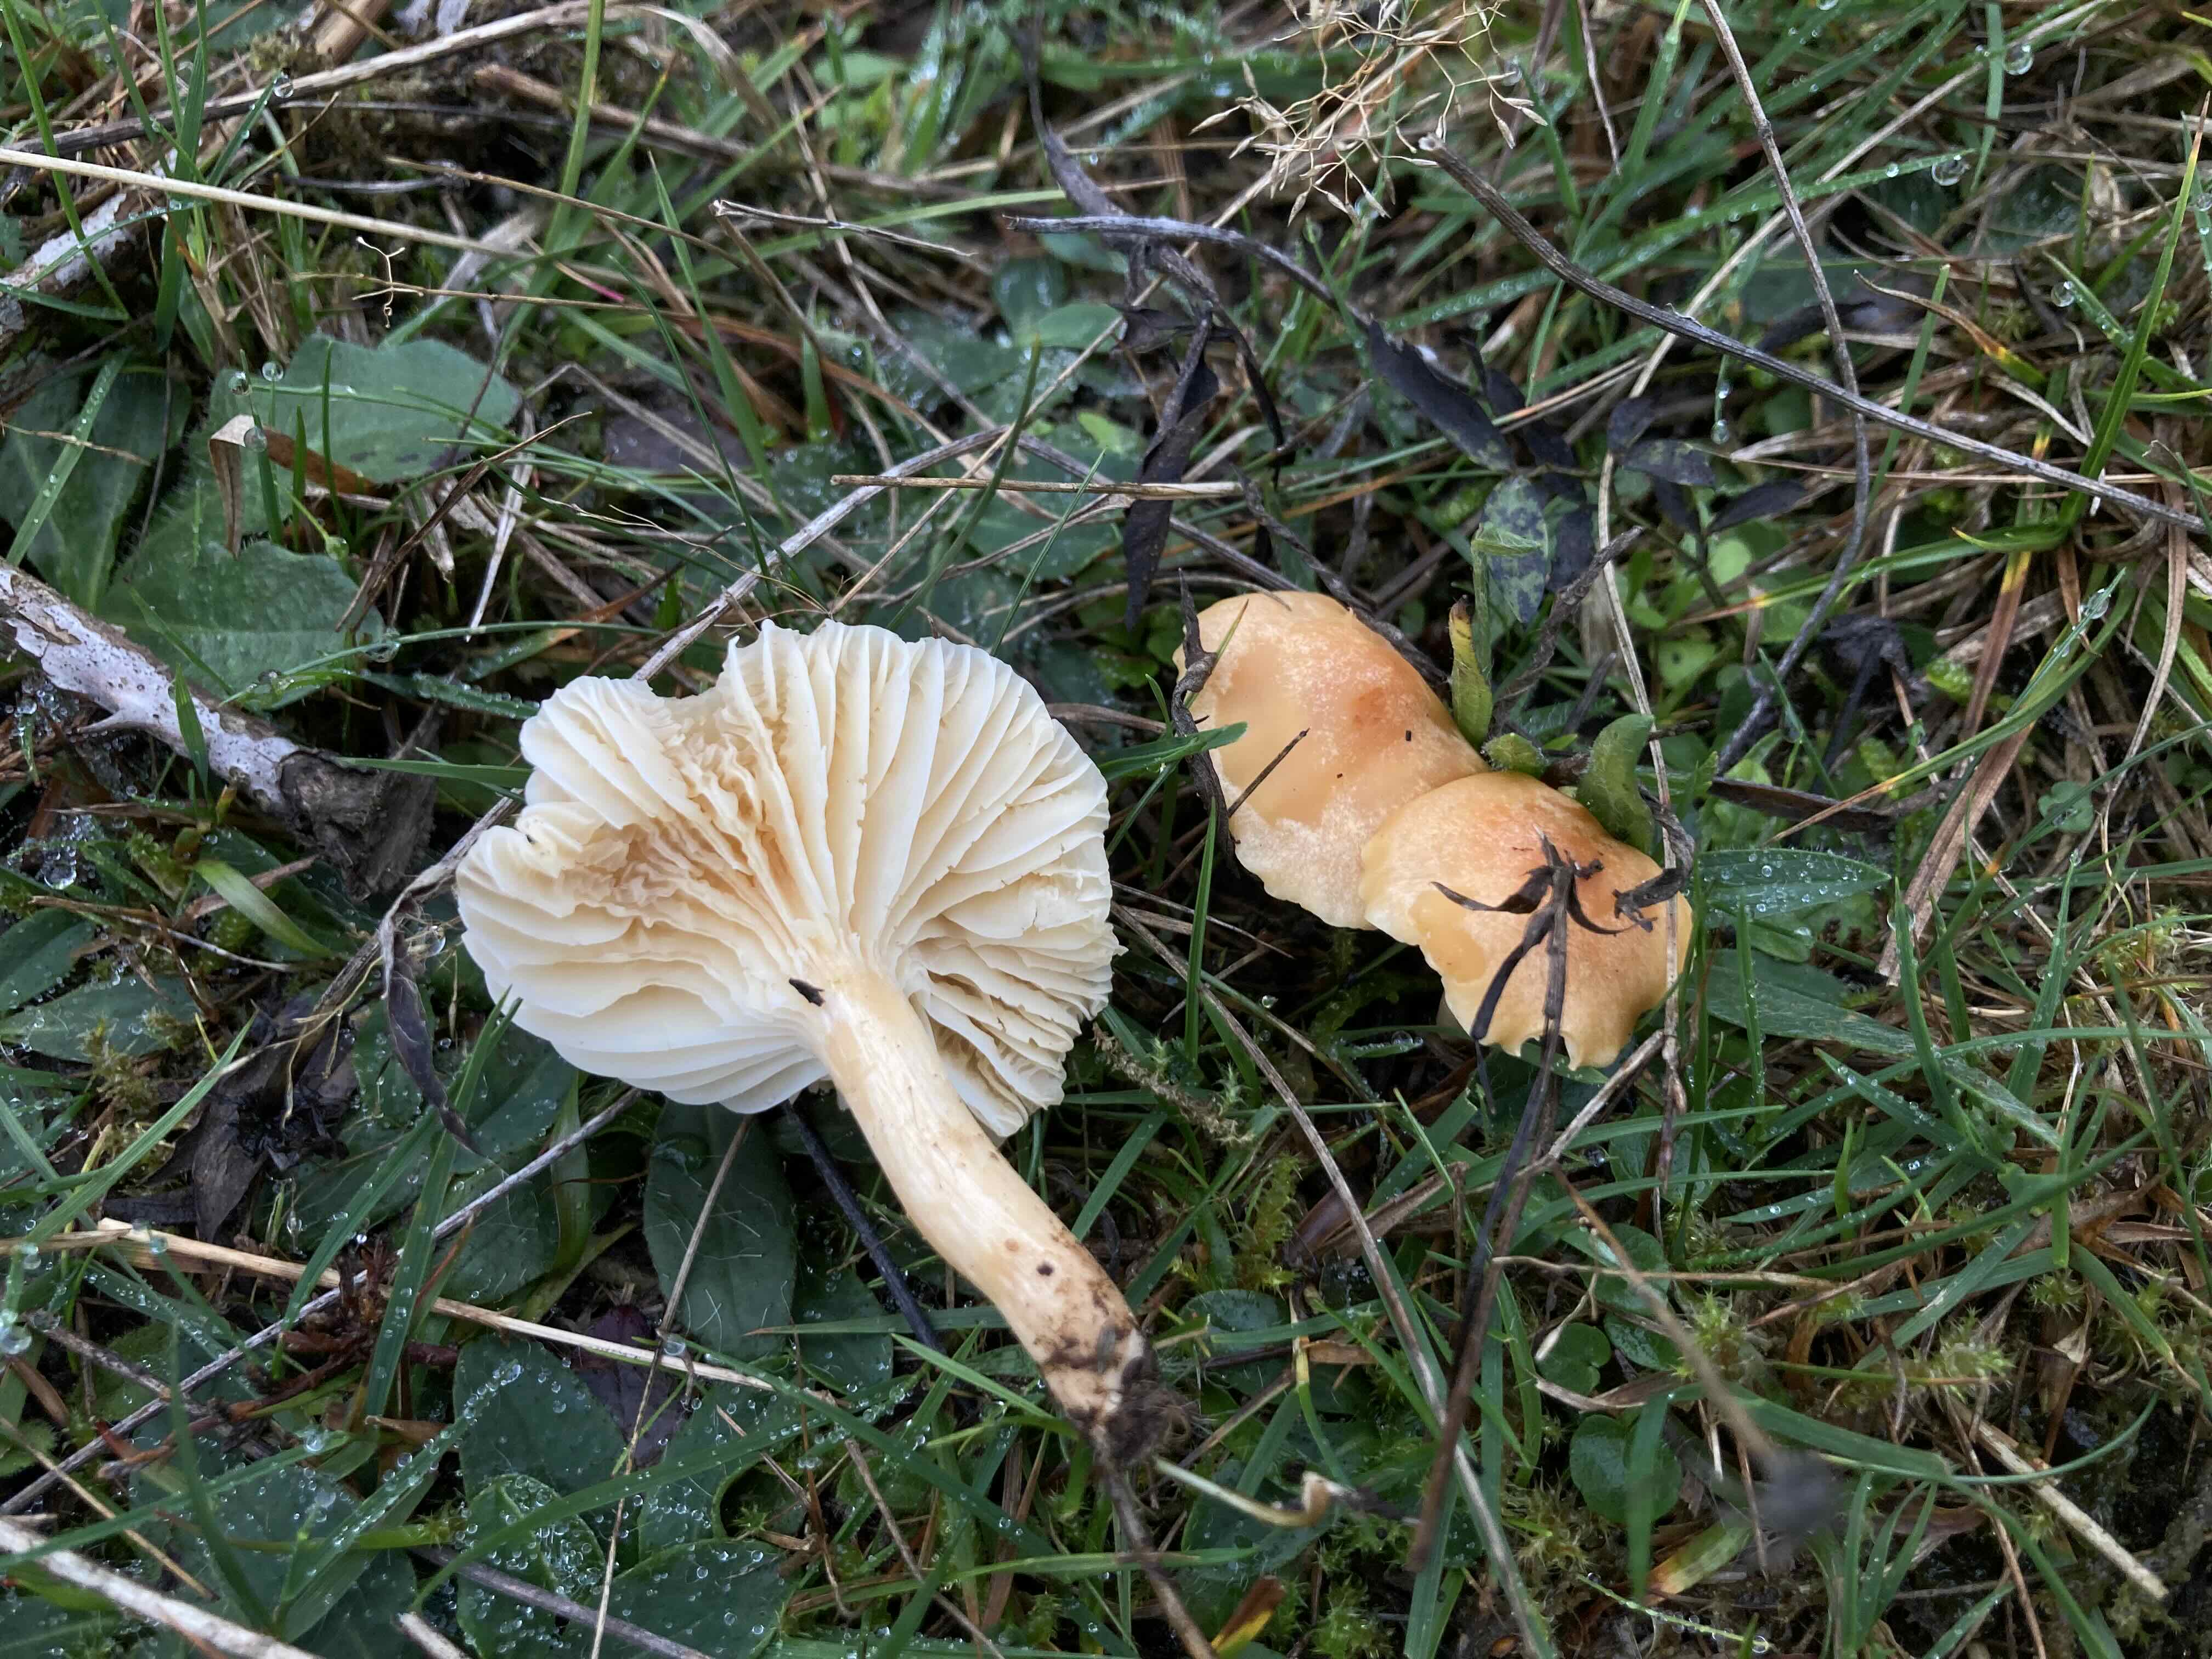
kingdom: Fungi
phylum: Basidiomycota
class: Agaricomycetes
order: Agaricales
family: Hygrophoraceae
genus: Cuphophyllus
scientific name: Cuphophyllus pratensis
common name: eng-vokshat
